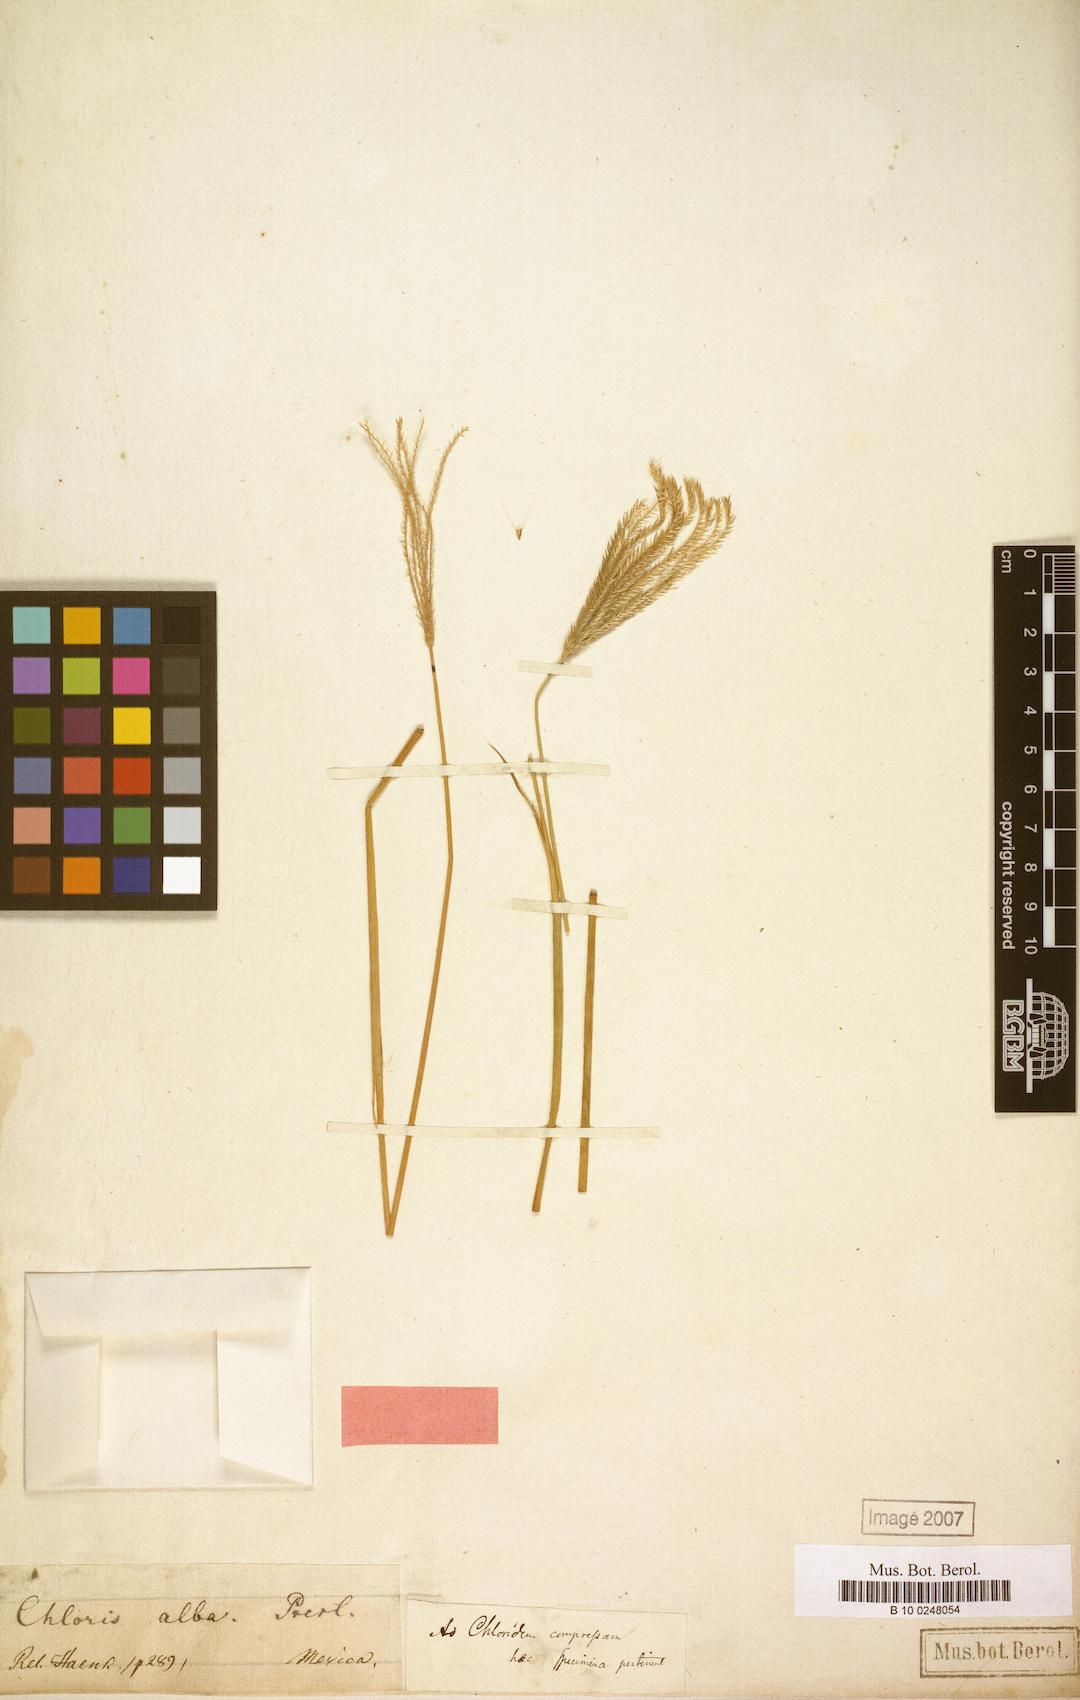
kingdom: Plantae
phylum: Tracheophyta
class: Liliopsida
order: Poales
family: Poaceae
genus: Chloris
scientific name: Chloris virgata
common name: Feathery rhodes-grass
